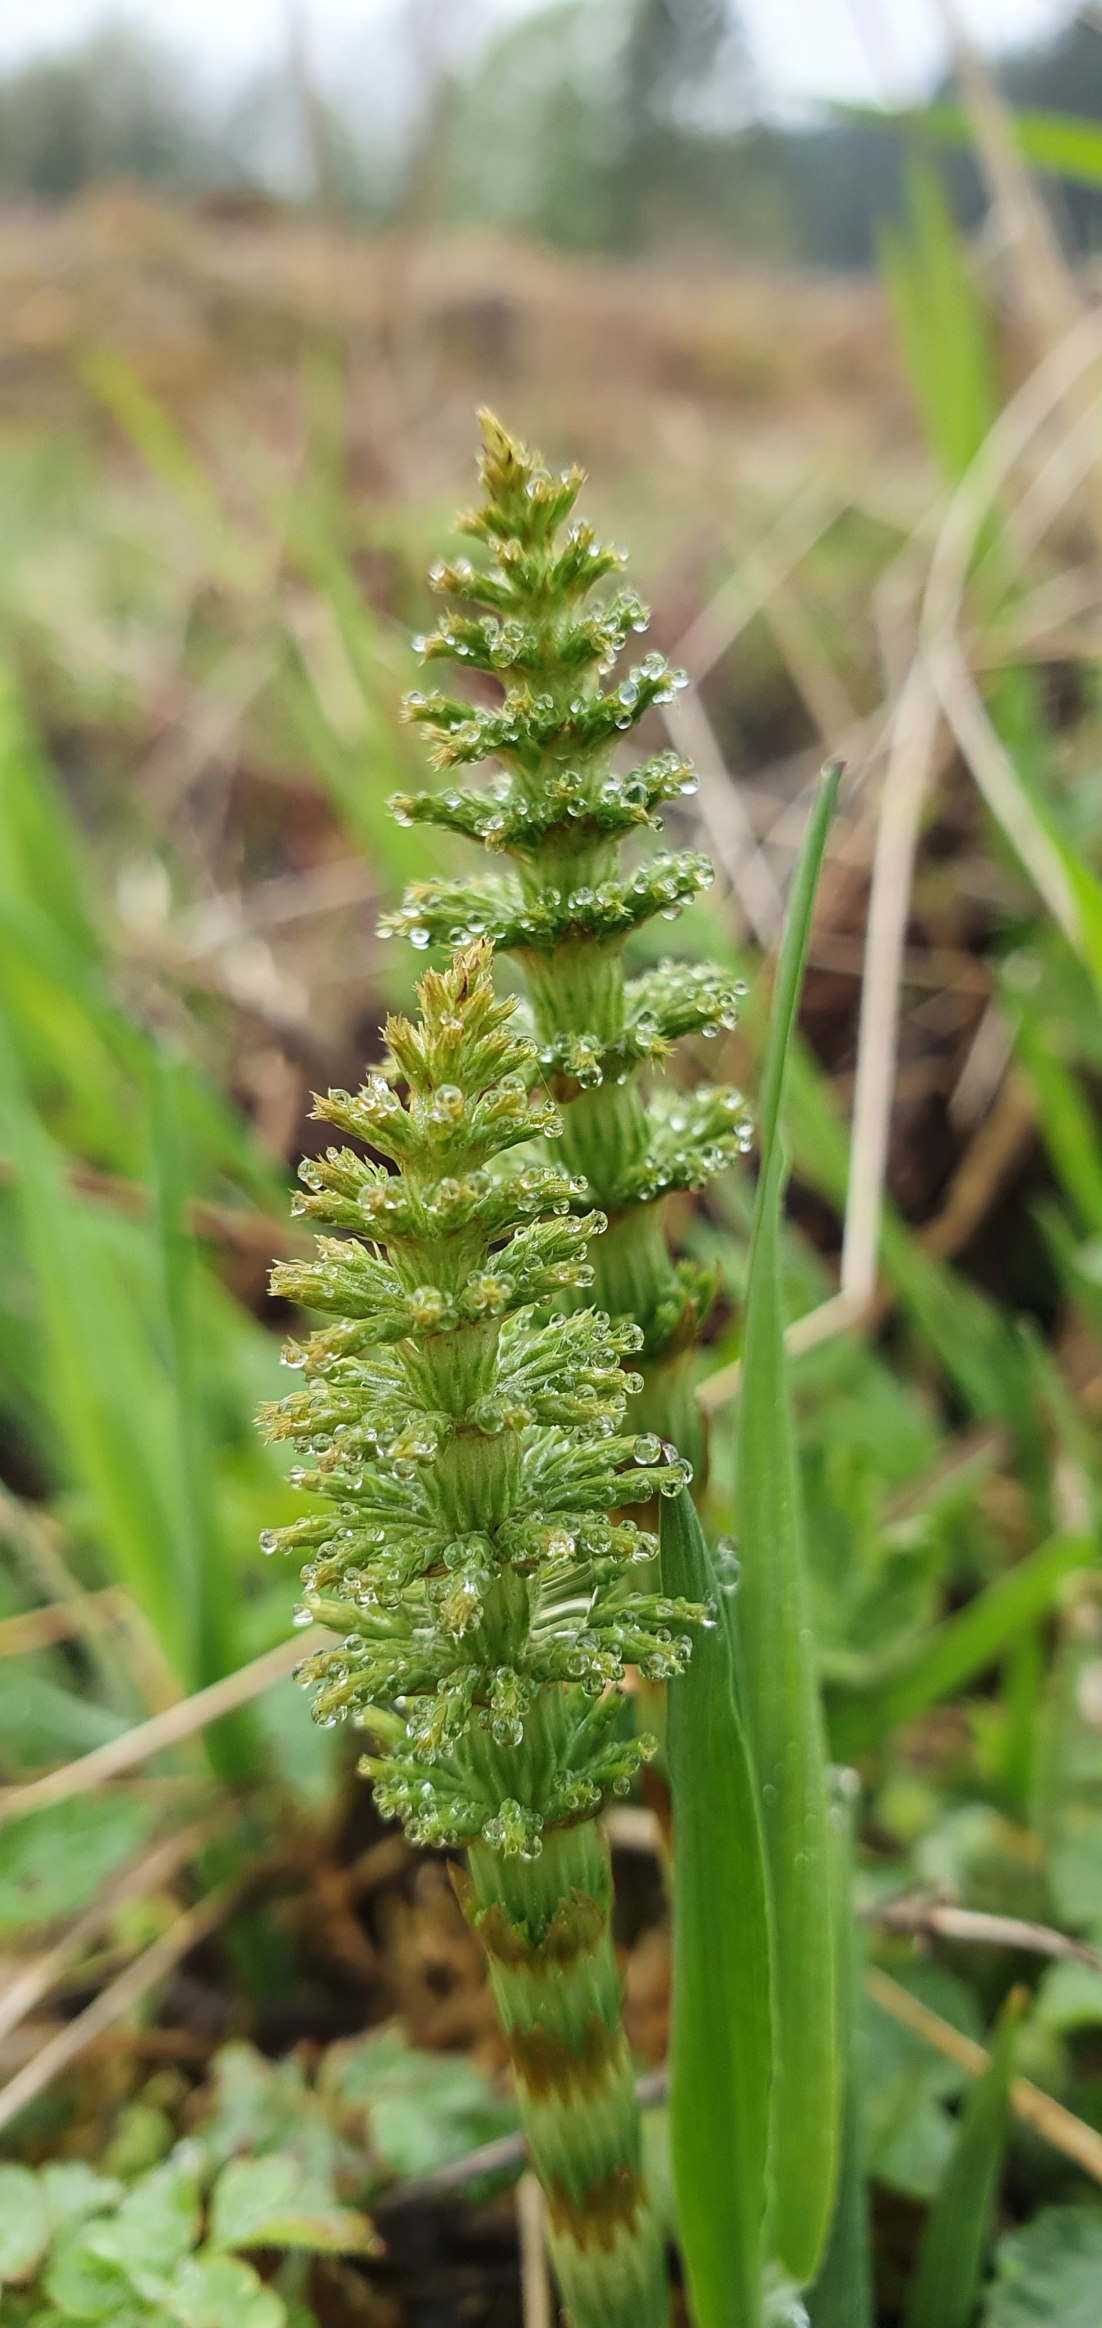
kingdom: Plantae
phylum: Tracheophyta
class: Polypodiopsida
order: Equisetales
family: Equisetaceae
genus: Equisetum
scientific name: Equisetum sylvaticum
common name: Skov-padderok
